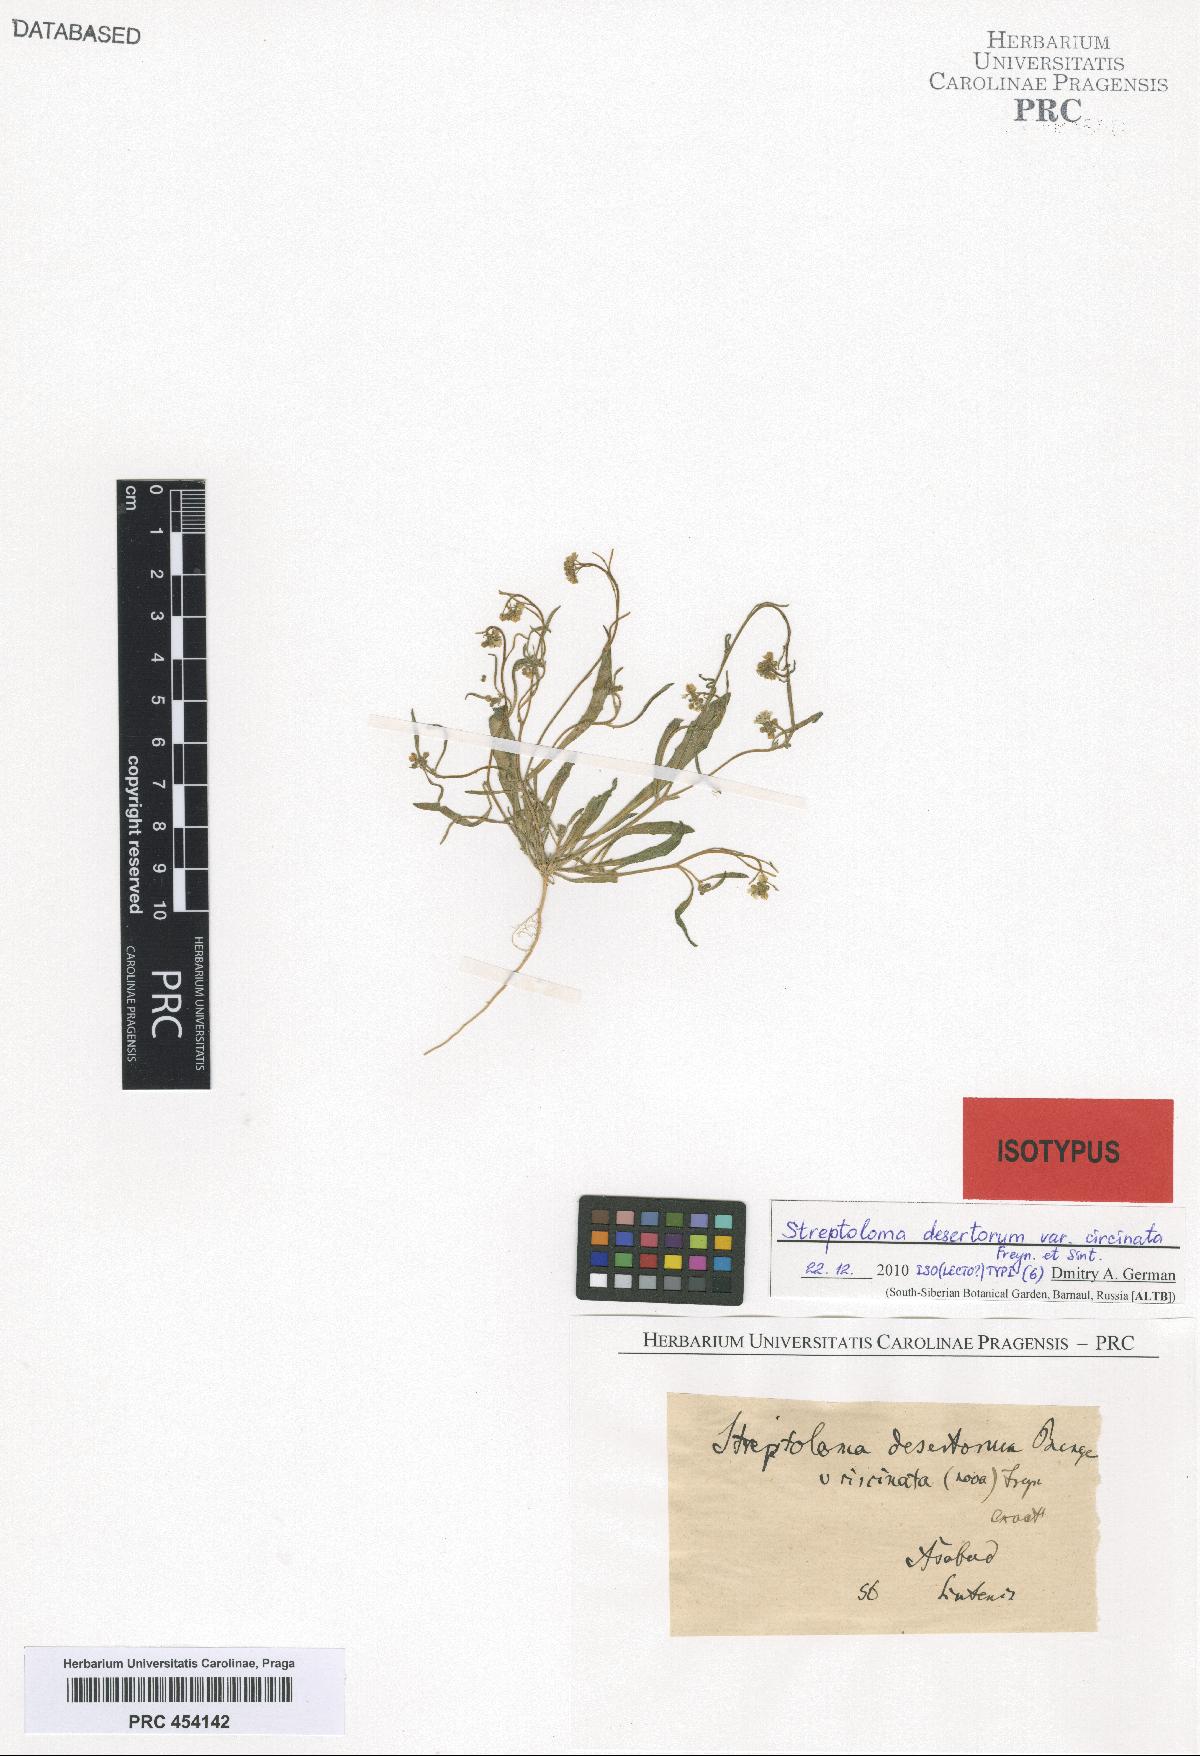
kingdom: Plantae
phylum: Tracheophyta
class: Magnoliopsida
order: Brassicales
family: Brassicaceae
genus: Streptoloma
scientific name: Streptoloma desertorum
